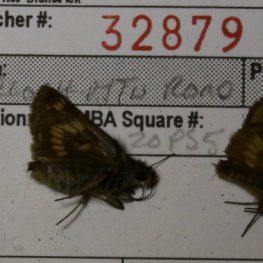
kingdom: Animalia
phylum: Arthropoda
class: Insecta
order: Lepidoptera
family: Hesperiidae
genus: Polites
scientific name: Polites
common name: Long Dash Skipper
